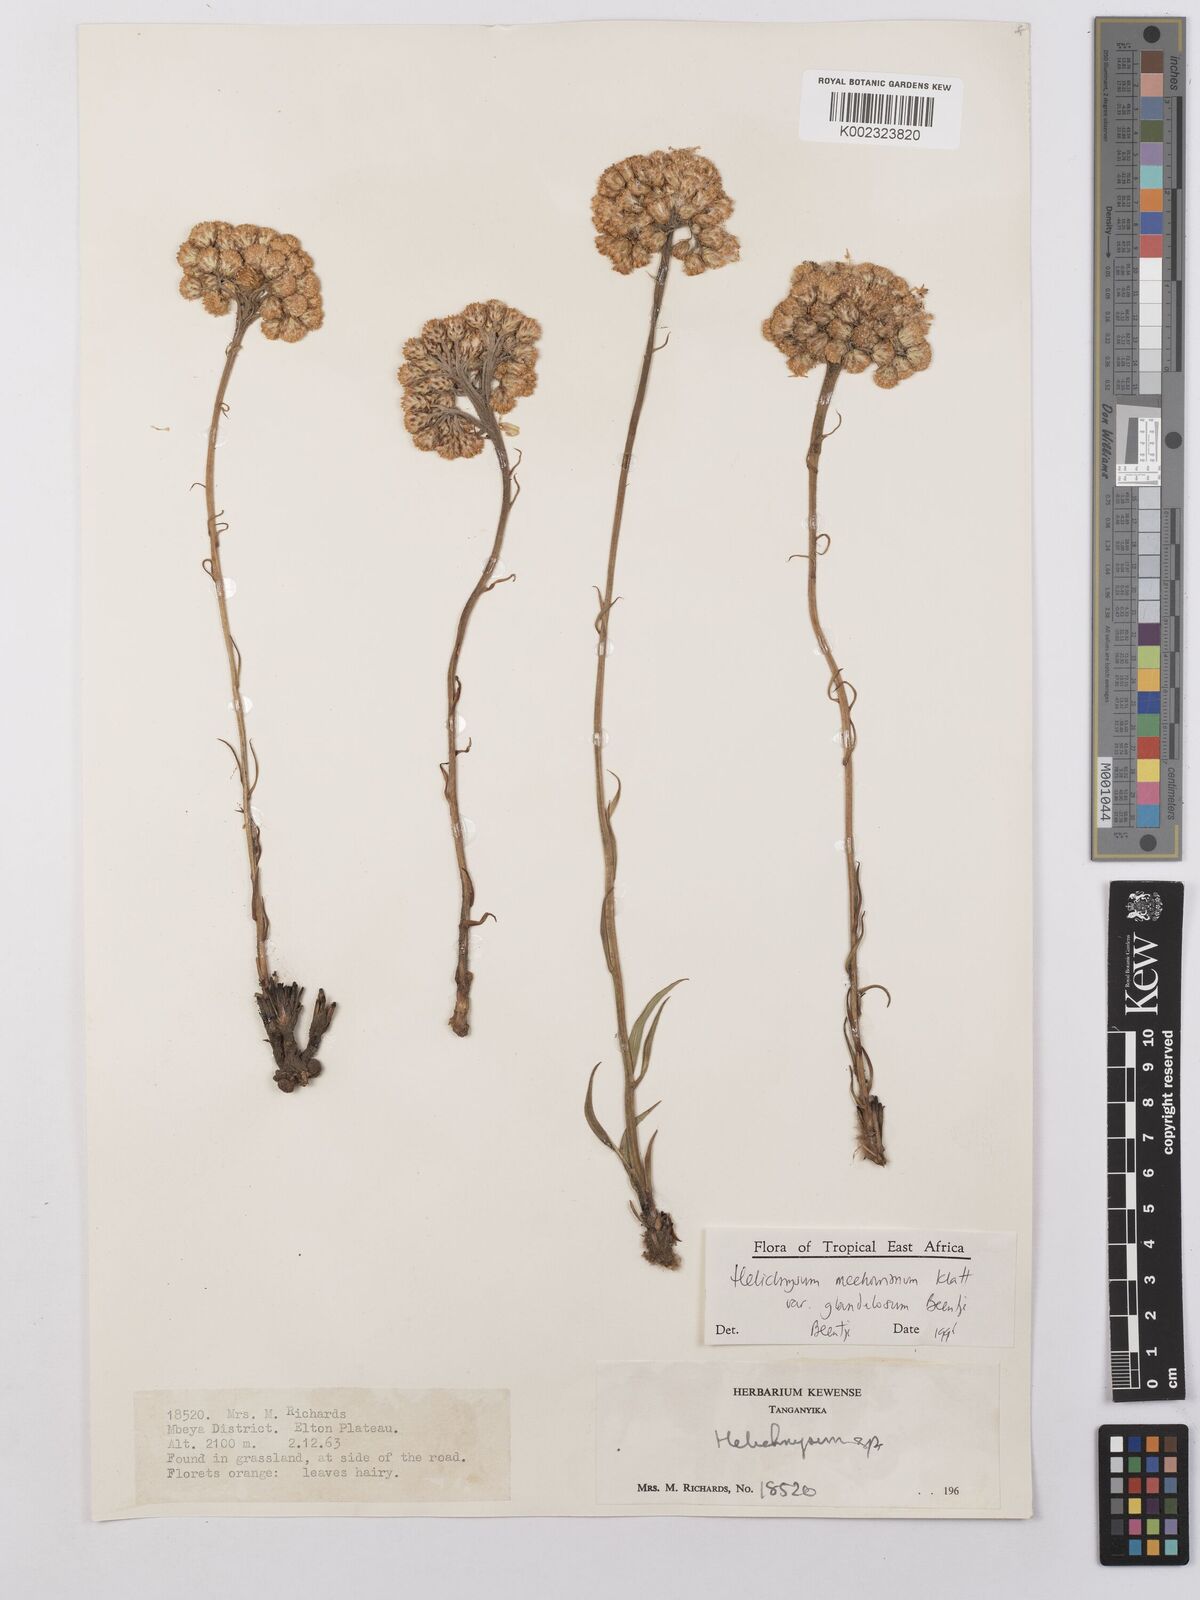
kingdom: Plantae
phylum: Tracheophyta
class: Magnoliopsida
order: Asterales
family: Asteraceae
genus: Helichrysum
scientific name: Helichrysum mechowianum
